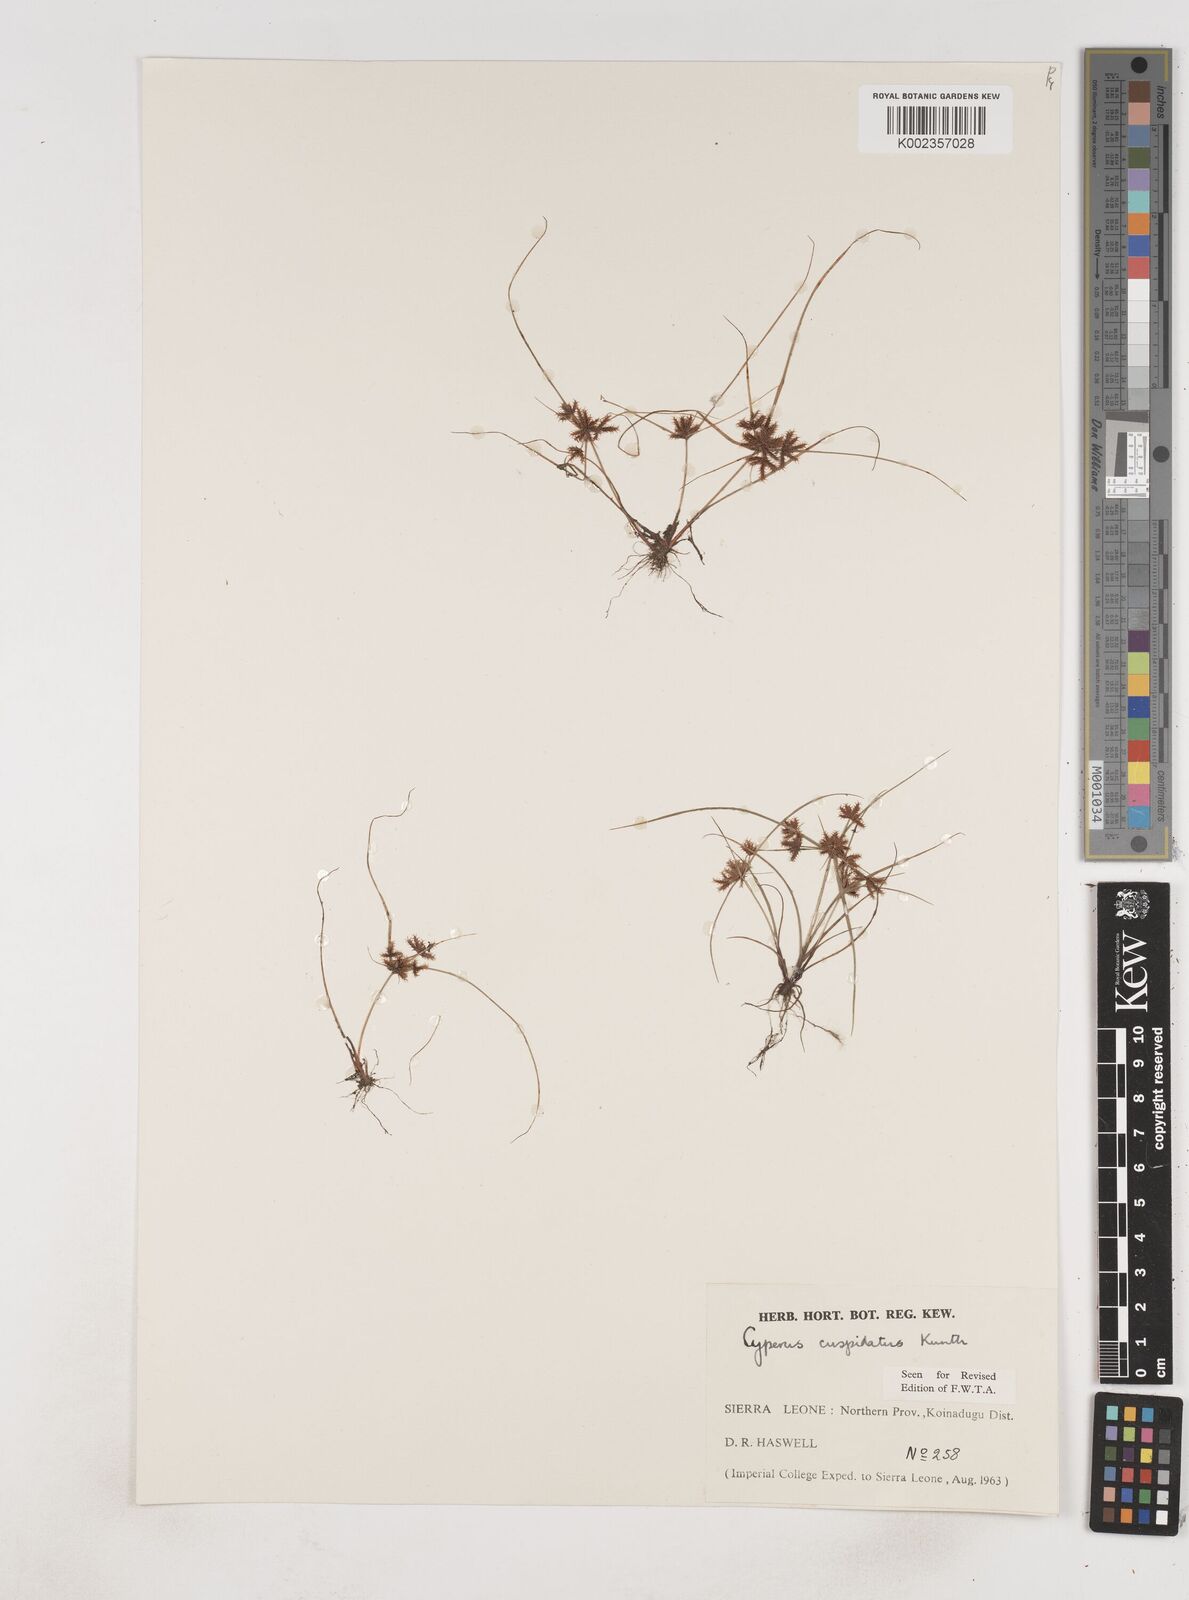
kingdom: Plantae
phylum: Tracheophyta
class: Liliopsida
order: Poales
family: Cyperaceae
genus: Cyperus
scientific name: Cyperus
